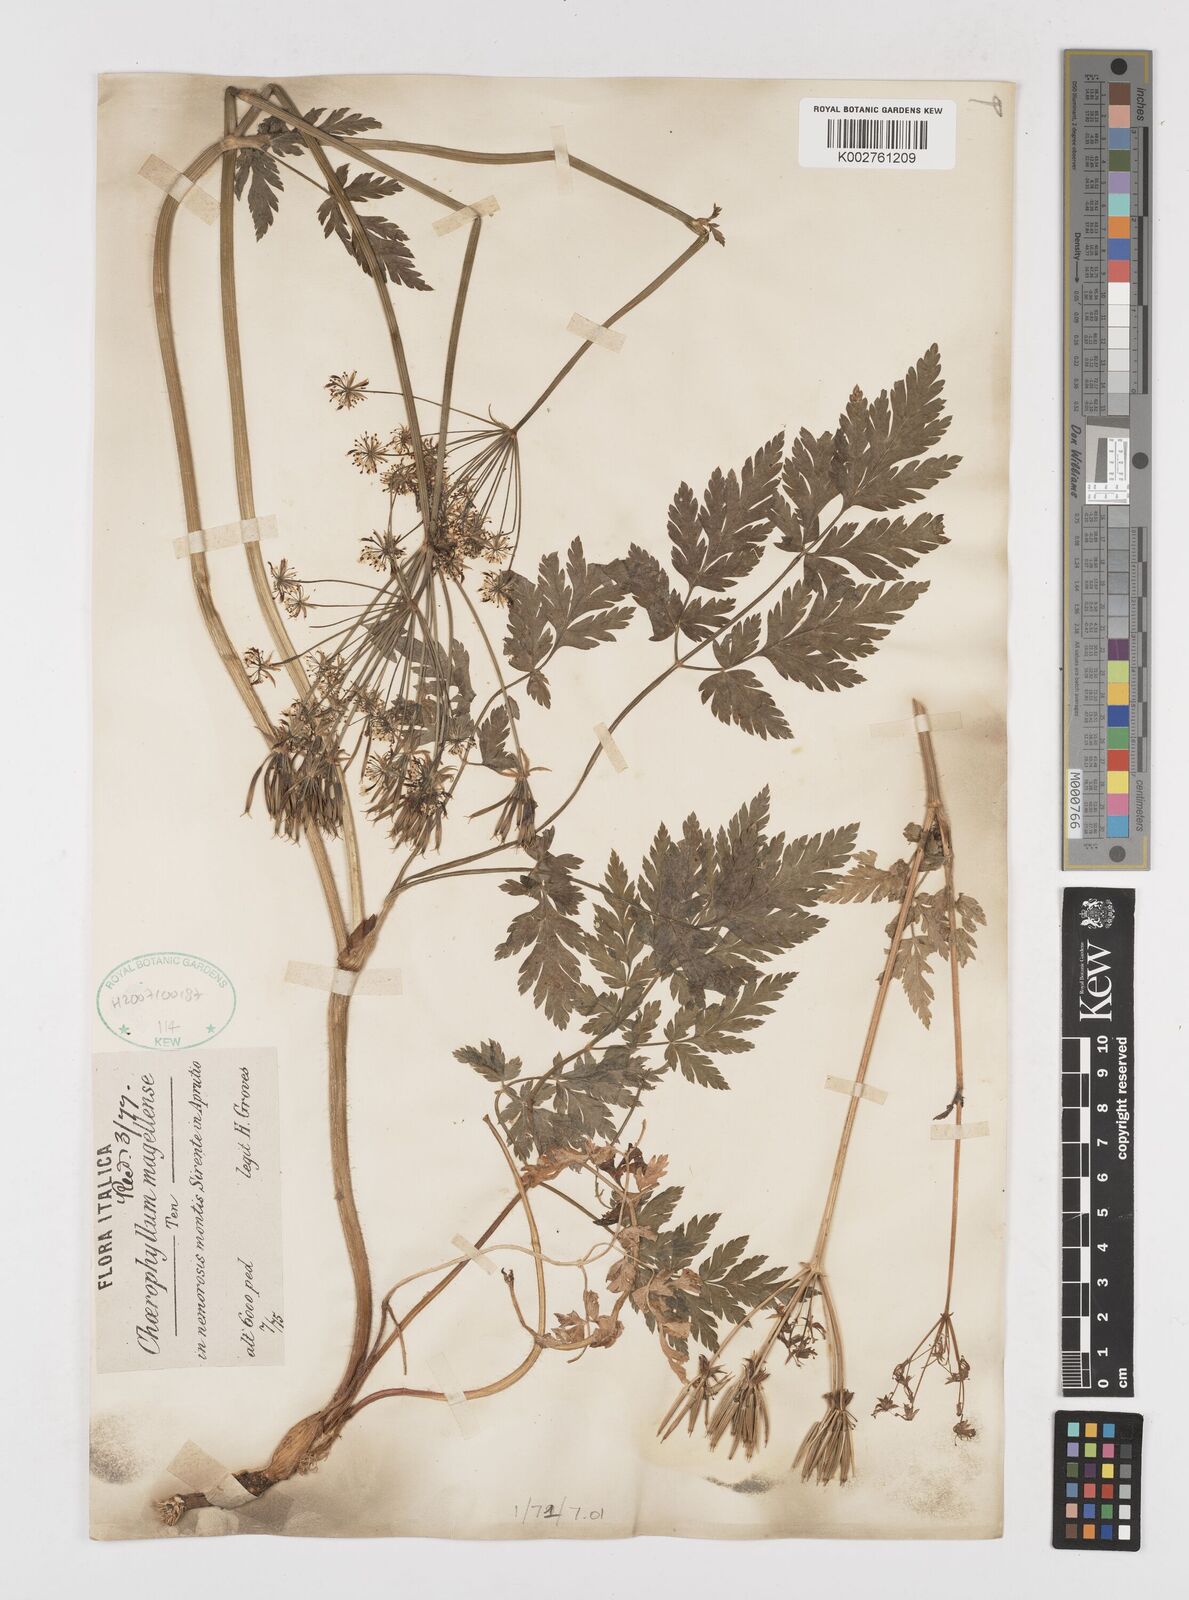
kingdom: Plantae
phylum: Tracheophyta
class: Magnoliopsida
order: Apiales
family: Apiaceae
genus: Chaerophyllum
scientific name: Chaerophyllum hirsutum
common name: Hairy chervil
